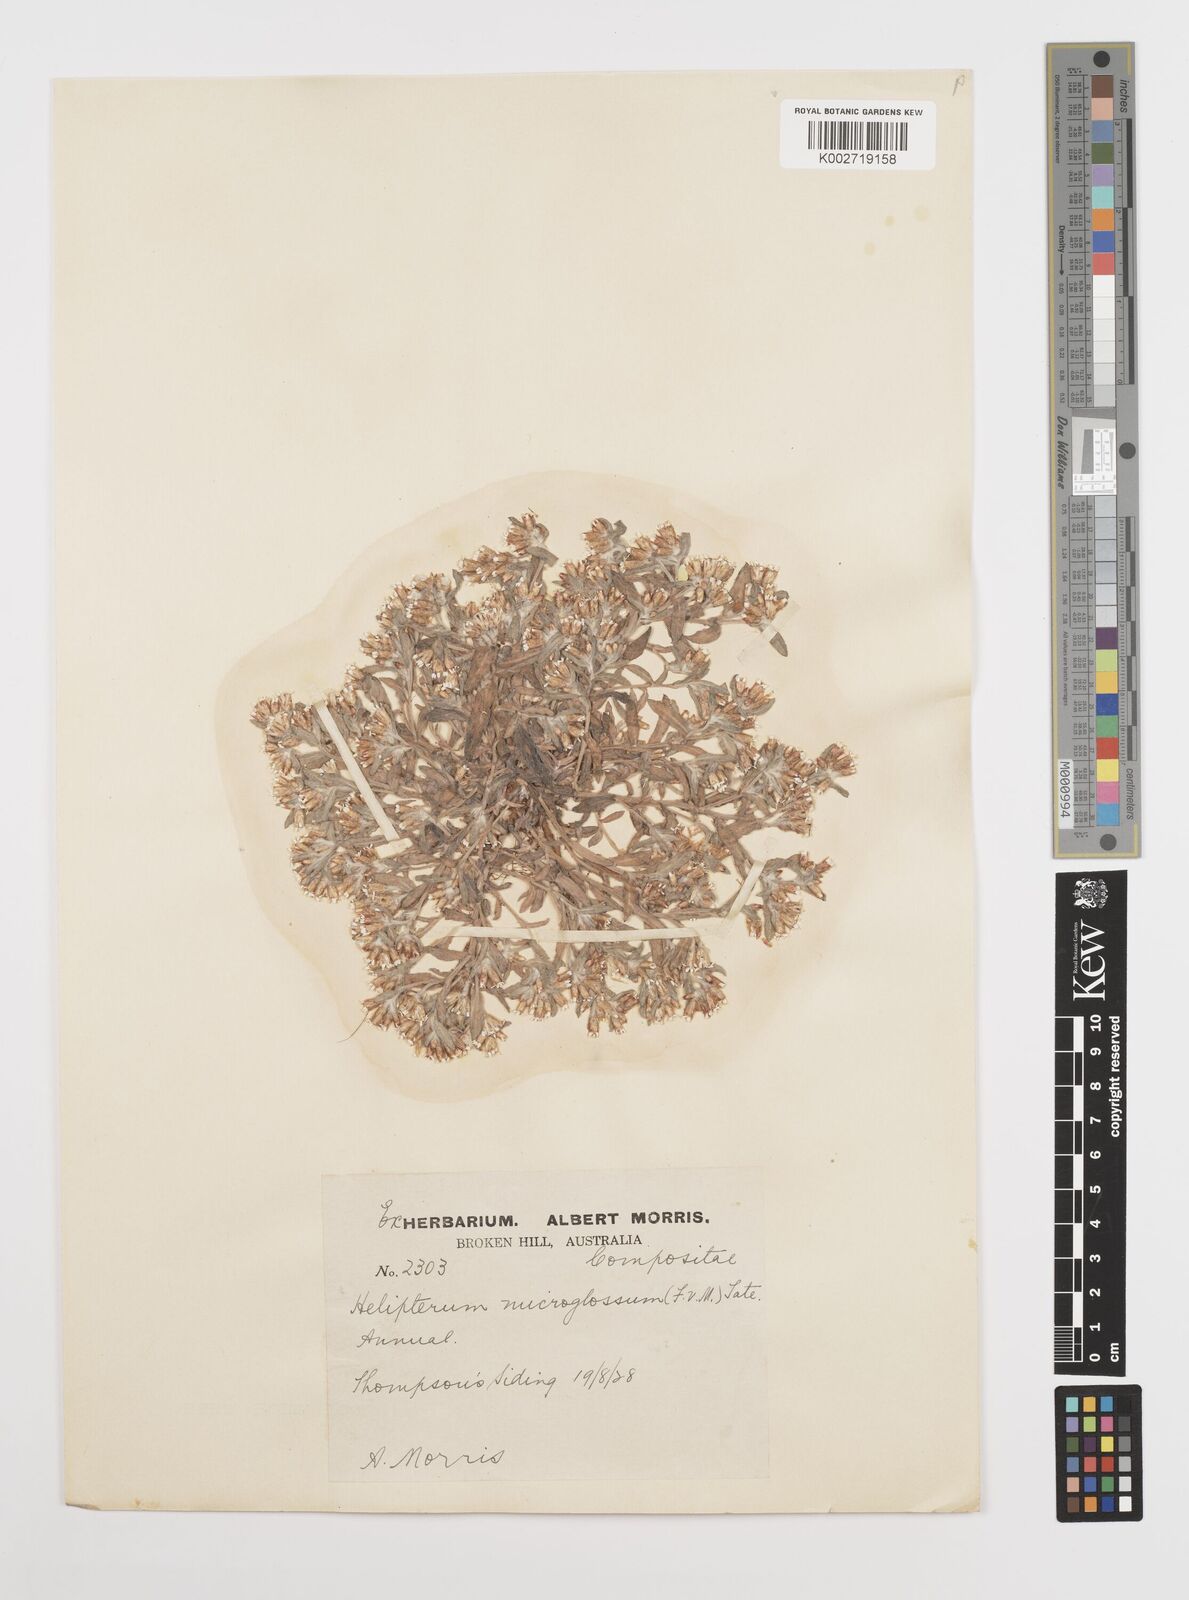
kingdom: Plantae
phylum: Tracheophyta
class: Magnoliopsida
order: Asterales
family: Asteraceae
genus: Rhodanthe
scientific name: Rhodanthe microglossa
